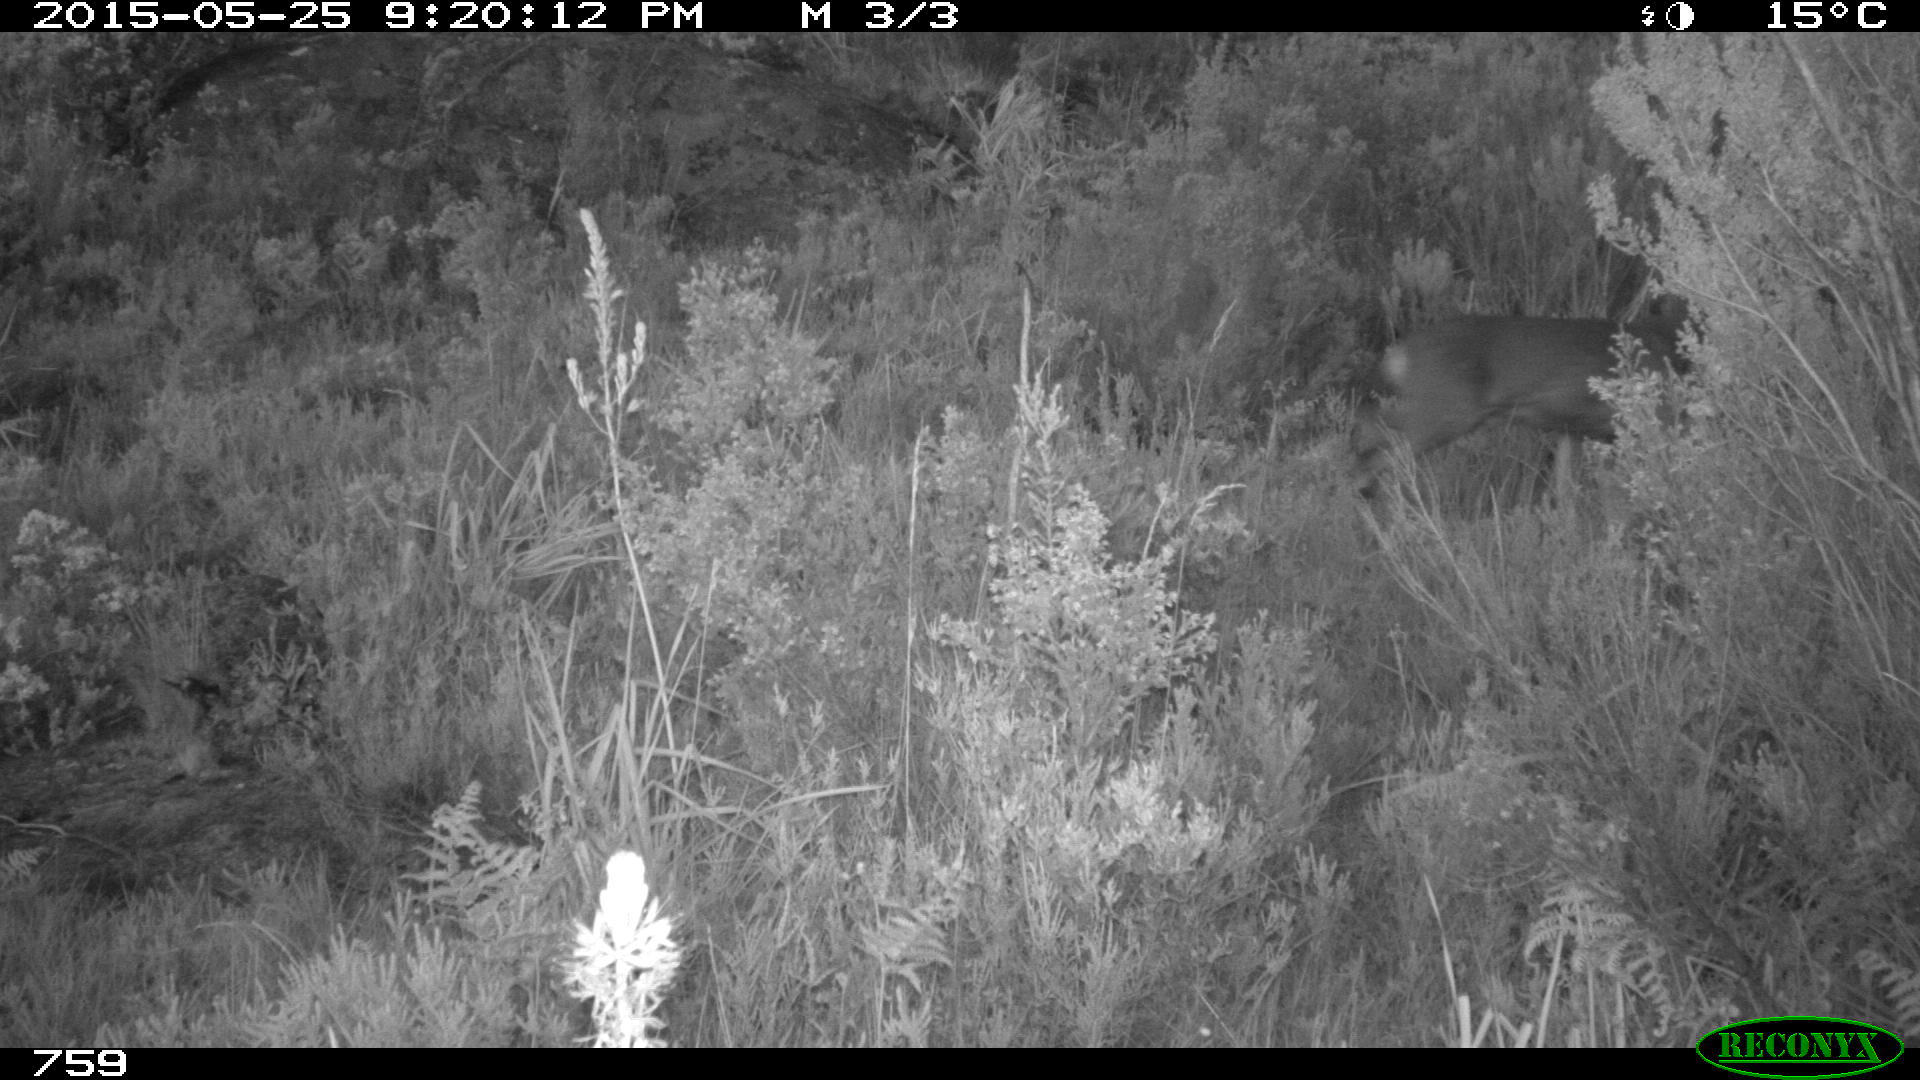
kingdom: Animalia
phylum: Chordata
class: Mammalia
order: Artiodactyla
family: Cervidae
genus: Capreolus
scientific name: Capreolus capreolus
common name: Western roe deer
